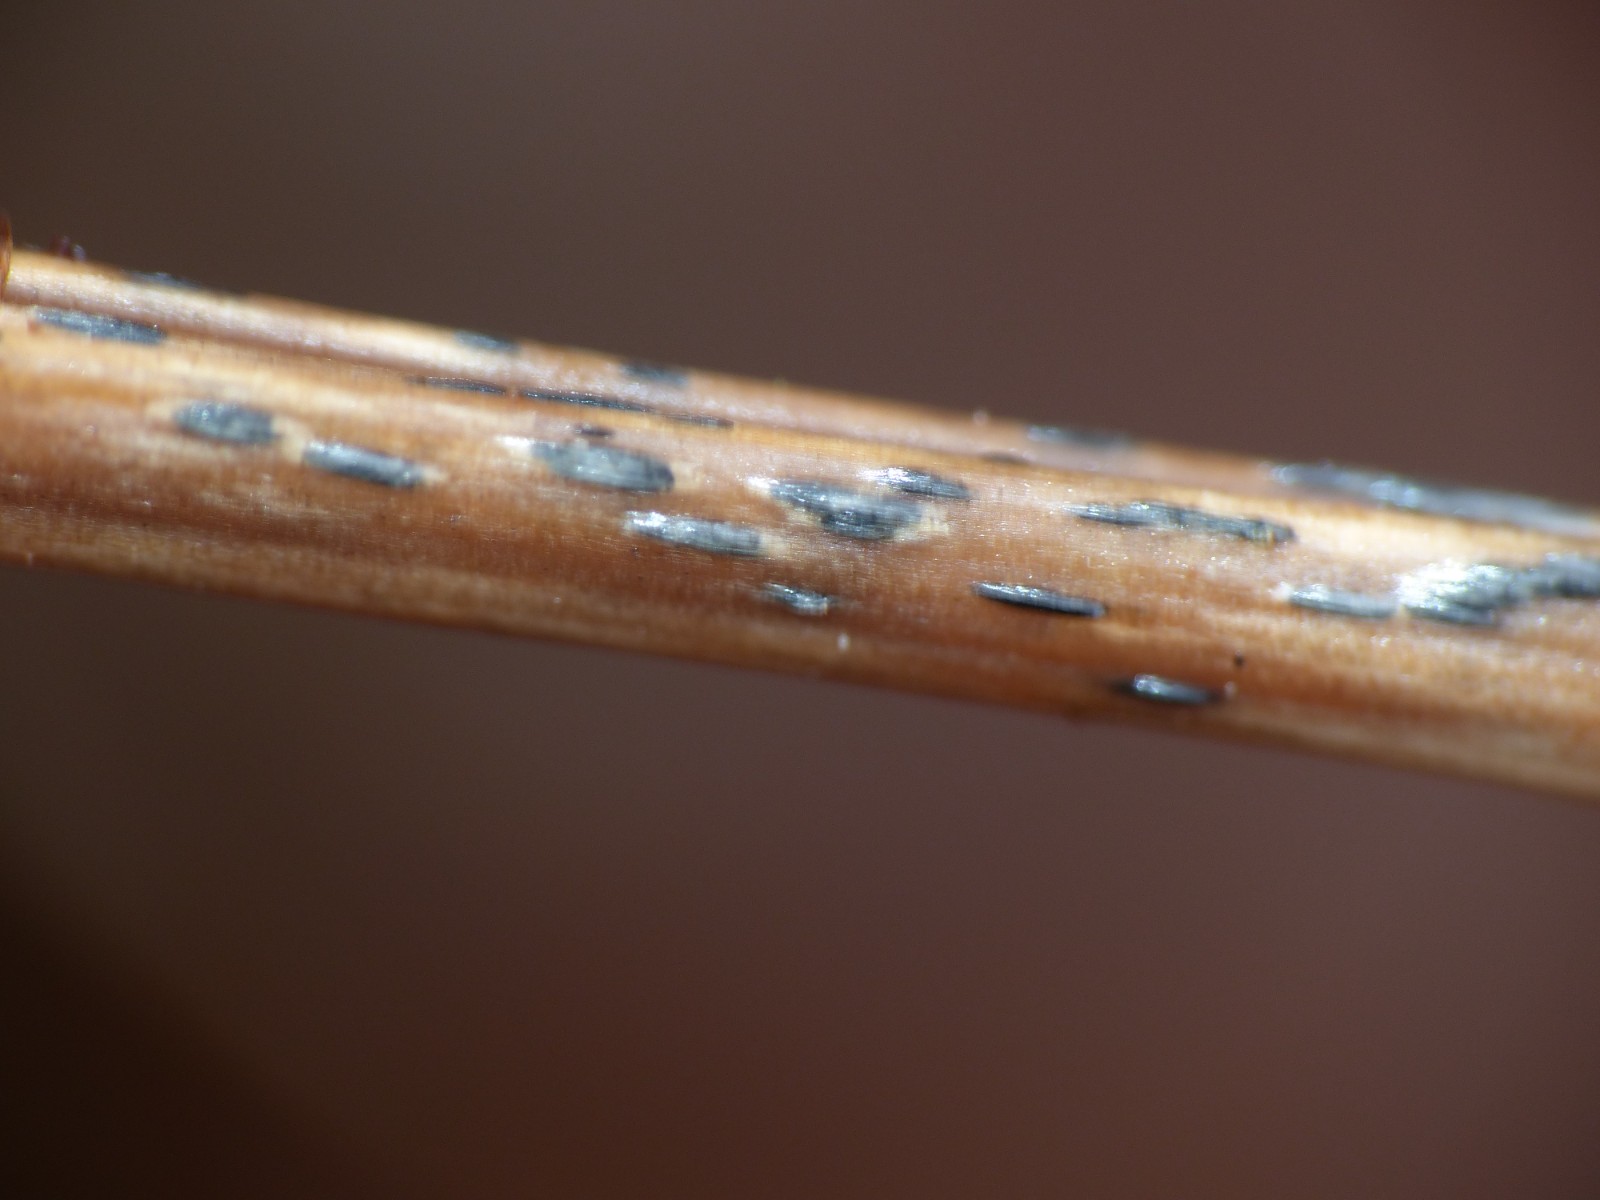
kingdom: Fungi
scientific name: Fungi
